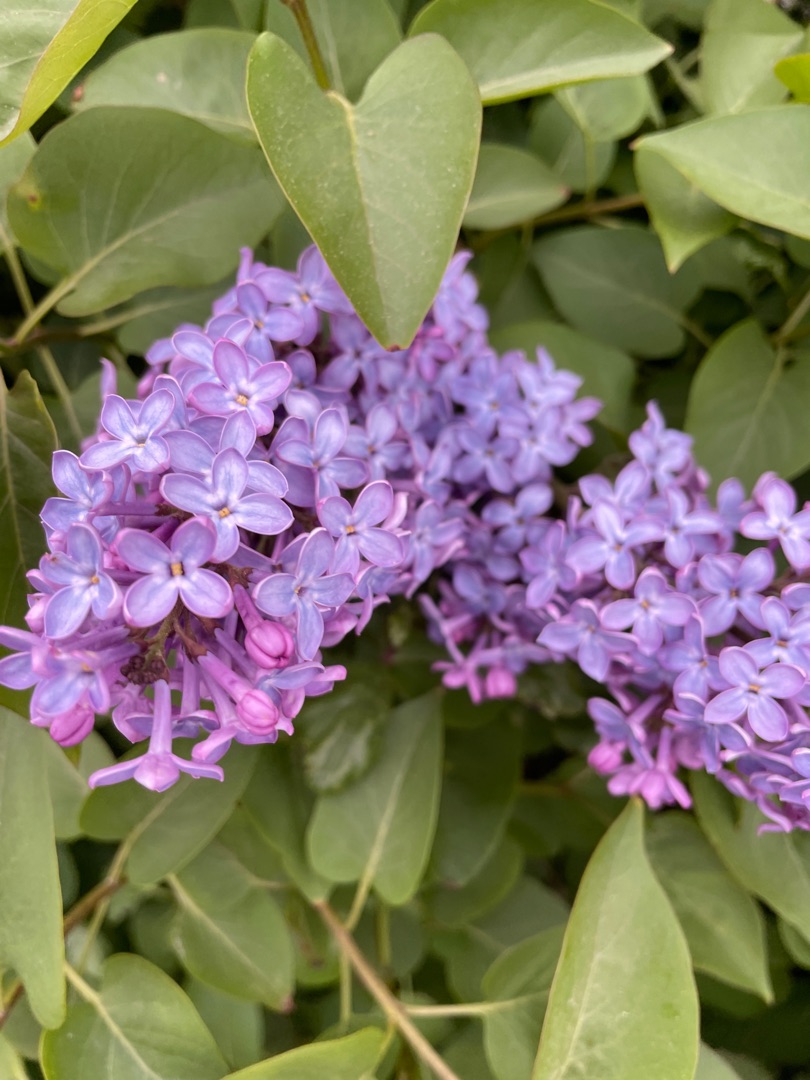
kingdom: Plantae
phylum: Tracheophyta
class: Magnoliopsida
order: Lamiales
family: Oleaceae
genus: Syringa
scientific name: Syringa vulgaris
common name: Syren
